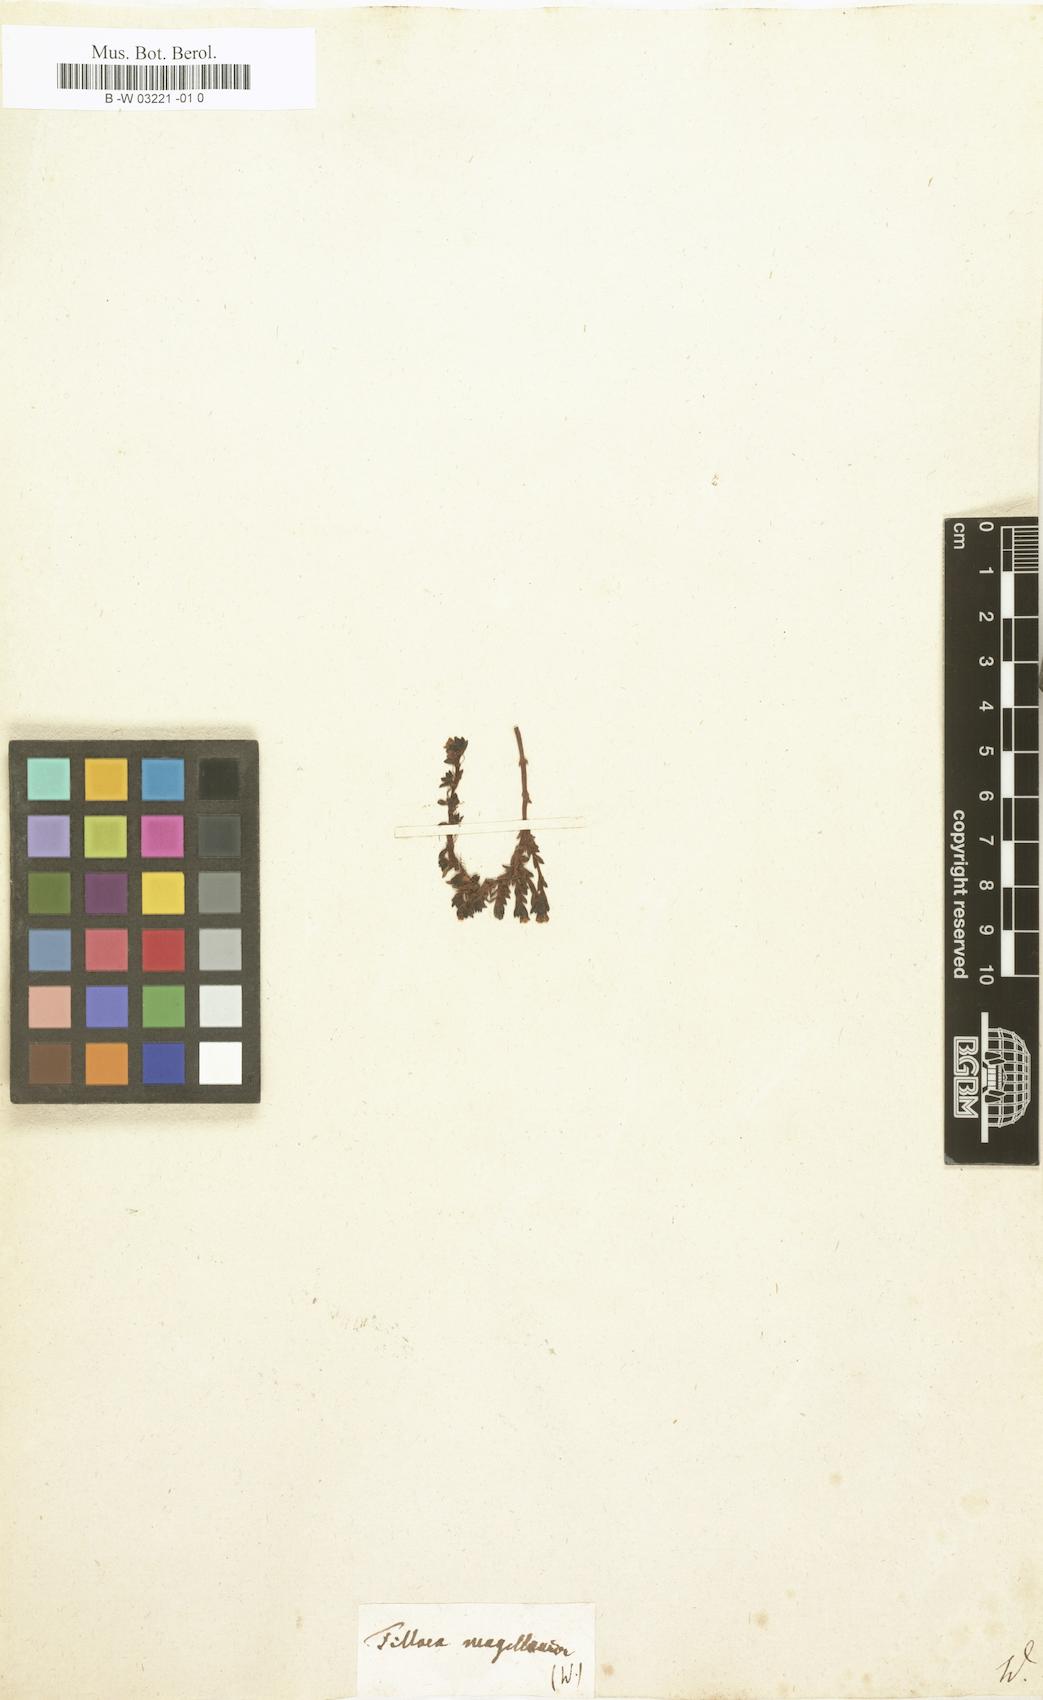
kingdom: Plantae
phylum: Tracheophyta
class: Magnoliopsida
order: Saxifragales
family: Crassulaceae
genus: Crassula
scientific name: Crassula moschata
